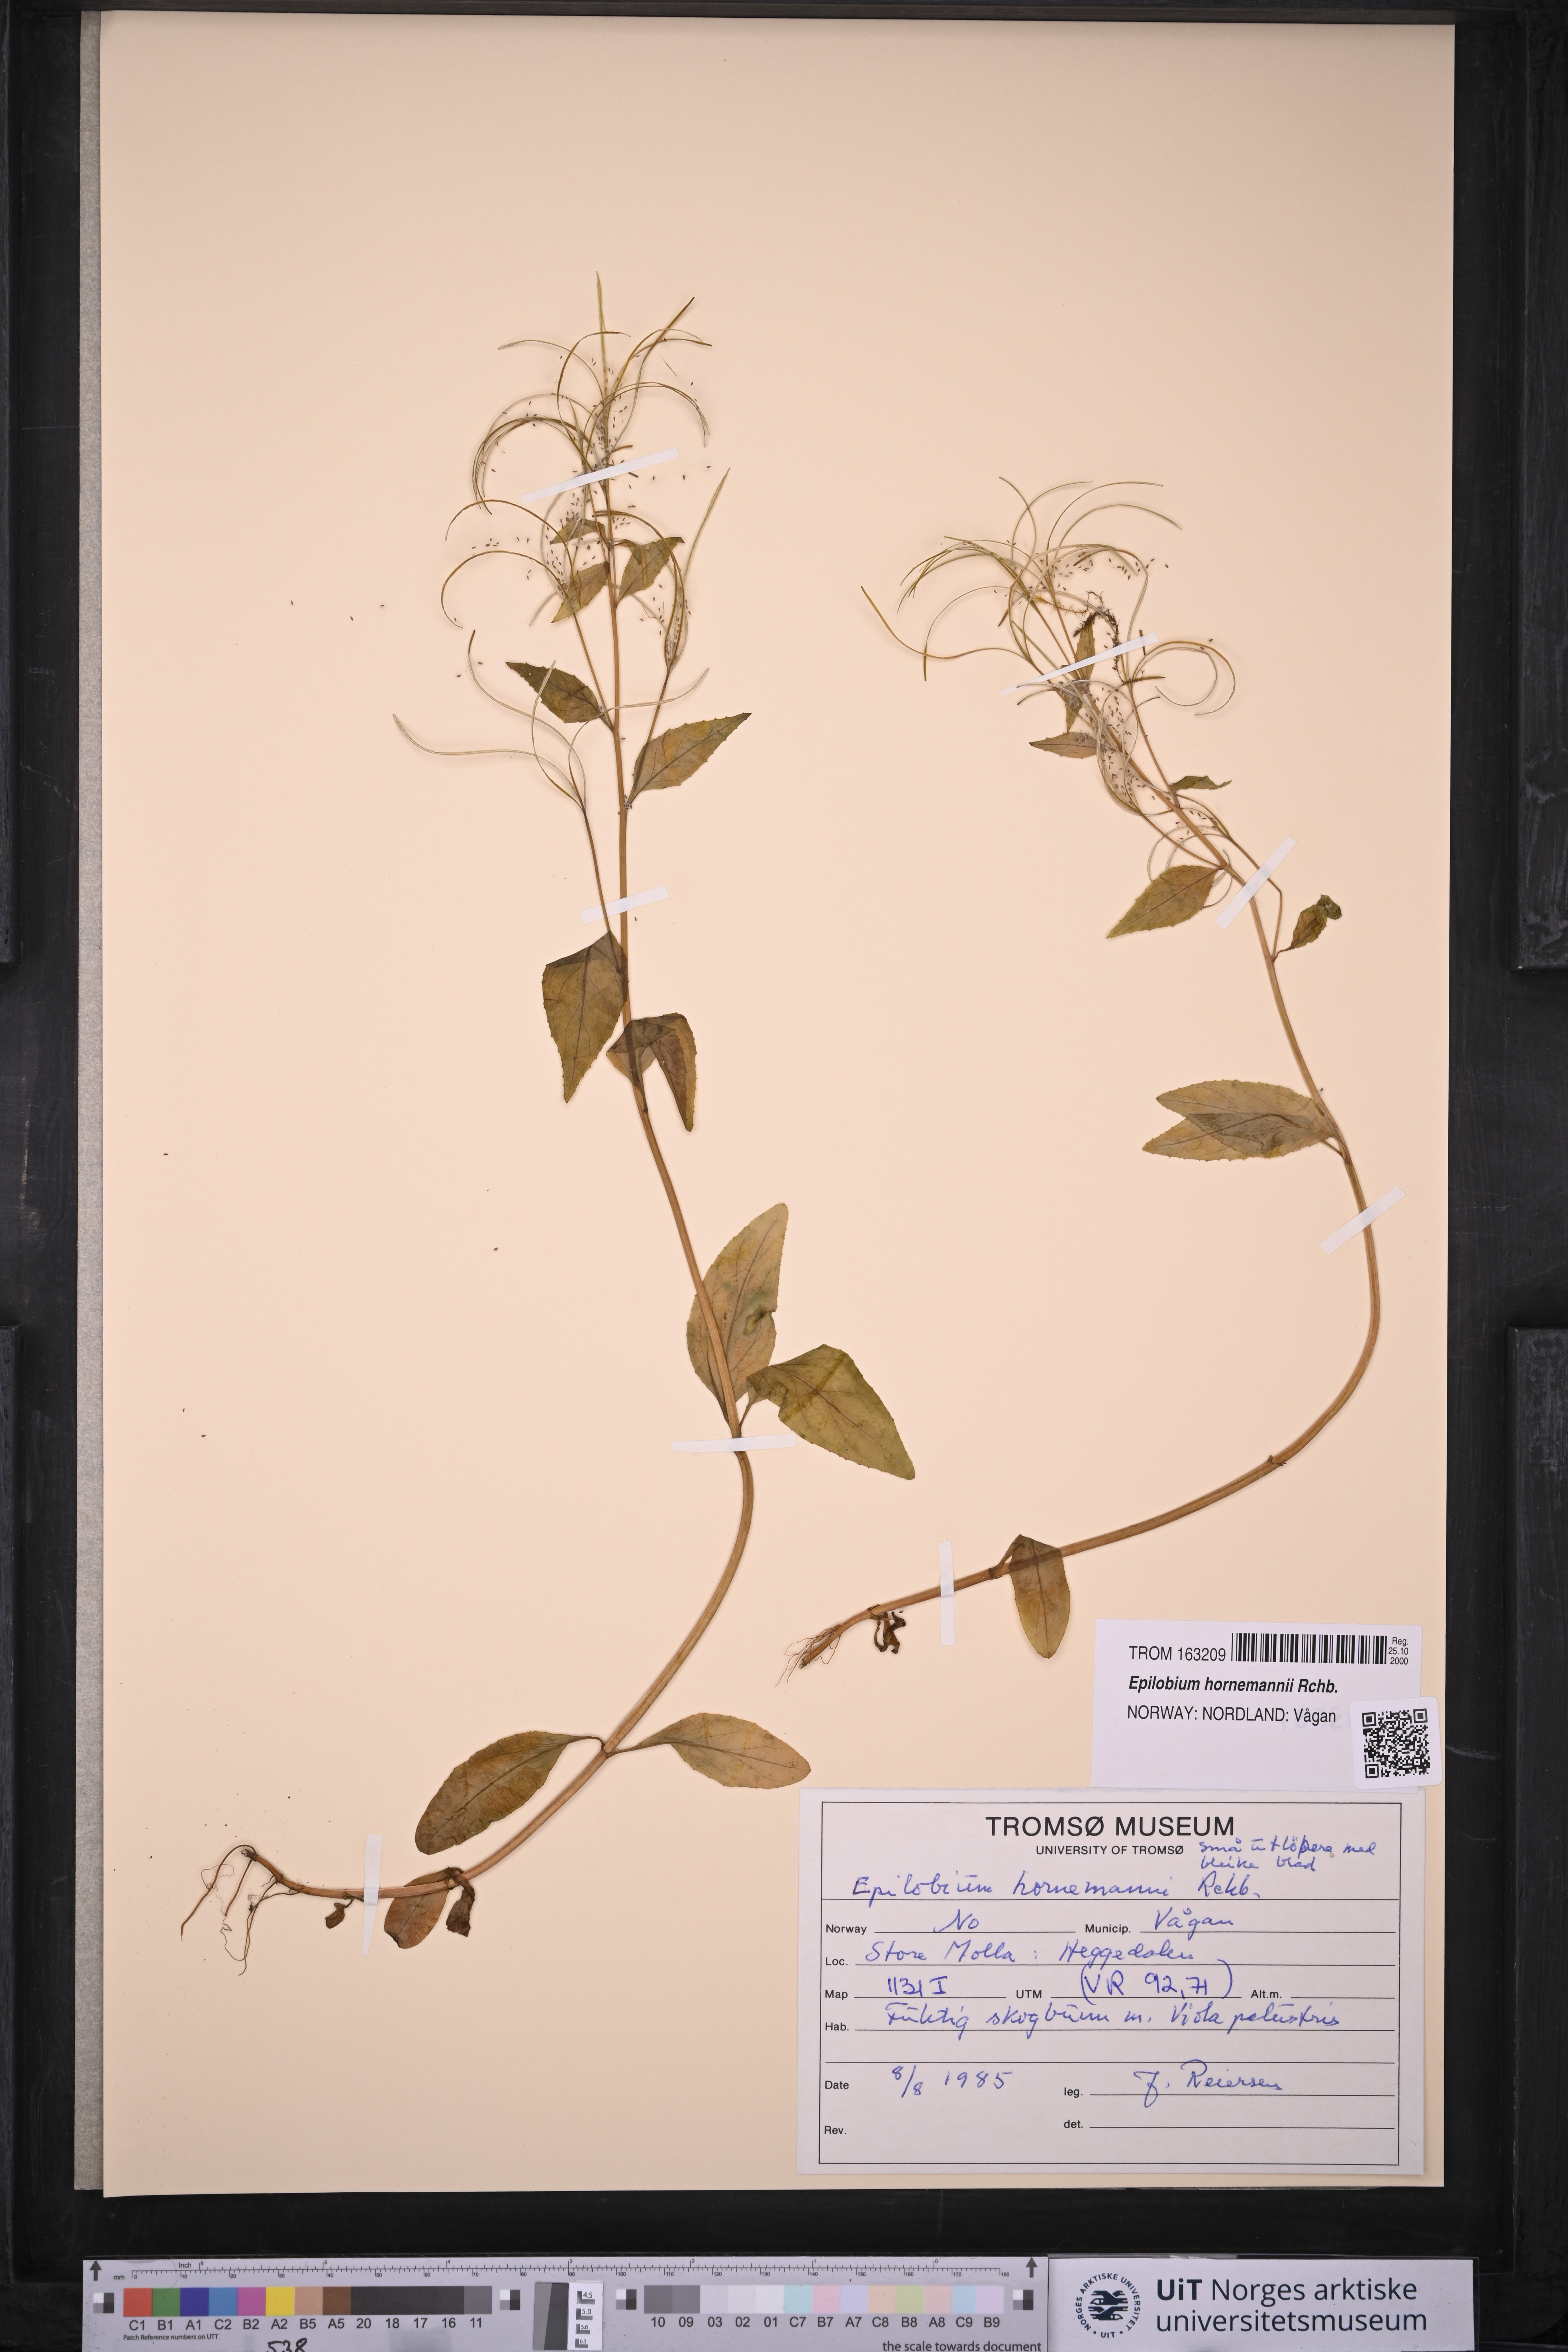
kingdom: Plantae
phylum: Tracheophyta
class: Magnoliopsida
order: Myrtales
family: Onagraceae
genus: Epilobium
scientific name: Epilobium hornemannii
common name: Hornemann's willowherb
